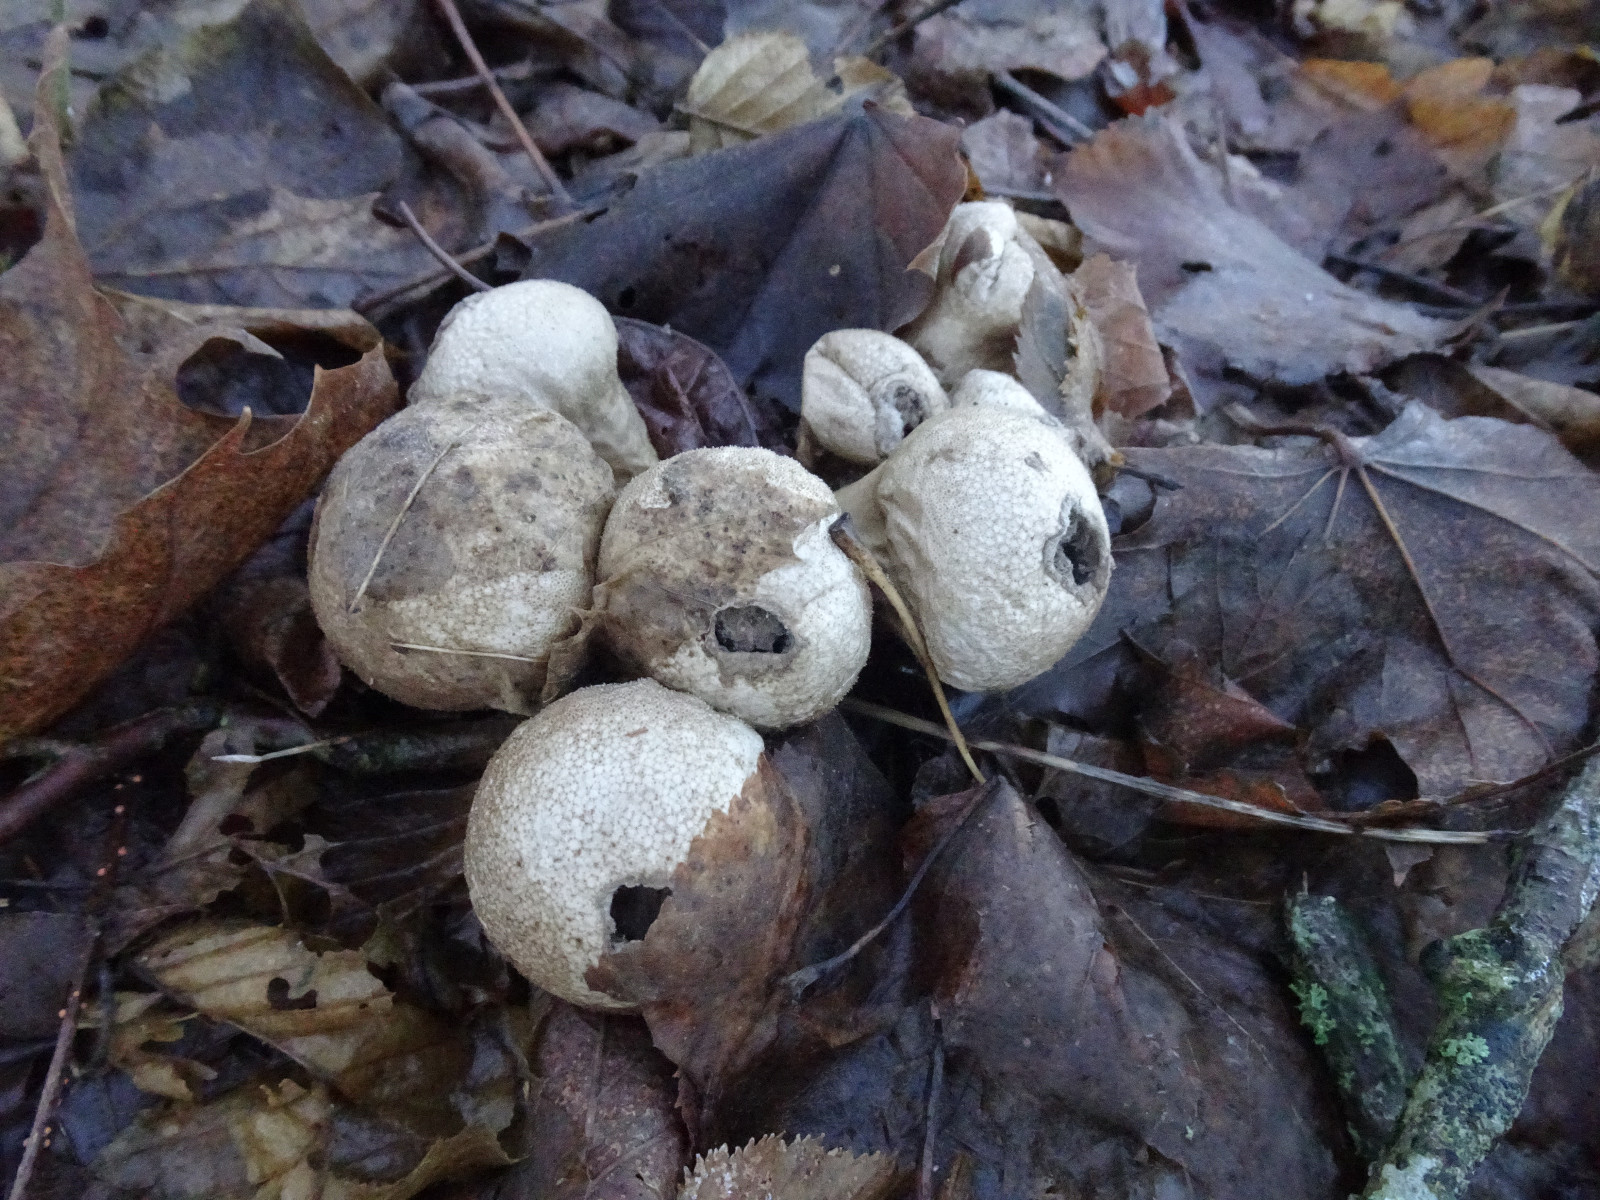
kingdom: Fungi
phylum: Basidiomycota
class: Agaricomycetes
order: Agaricales
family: Lycoperdaceae
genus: Apioperdon
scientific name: Apioperdon pyriforme
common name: pære-støvbold
